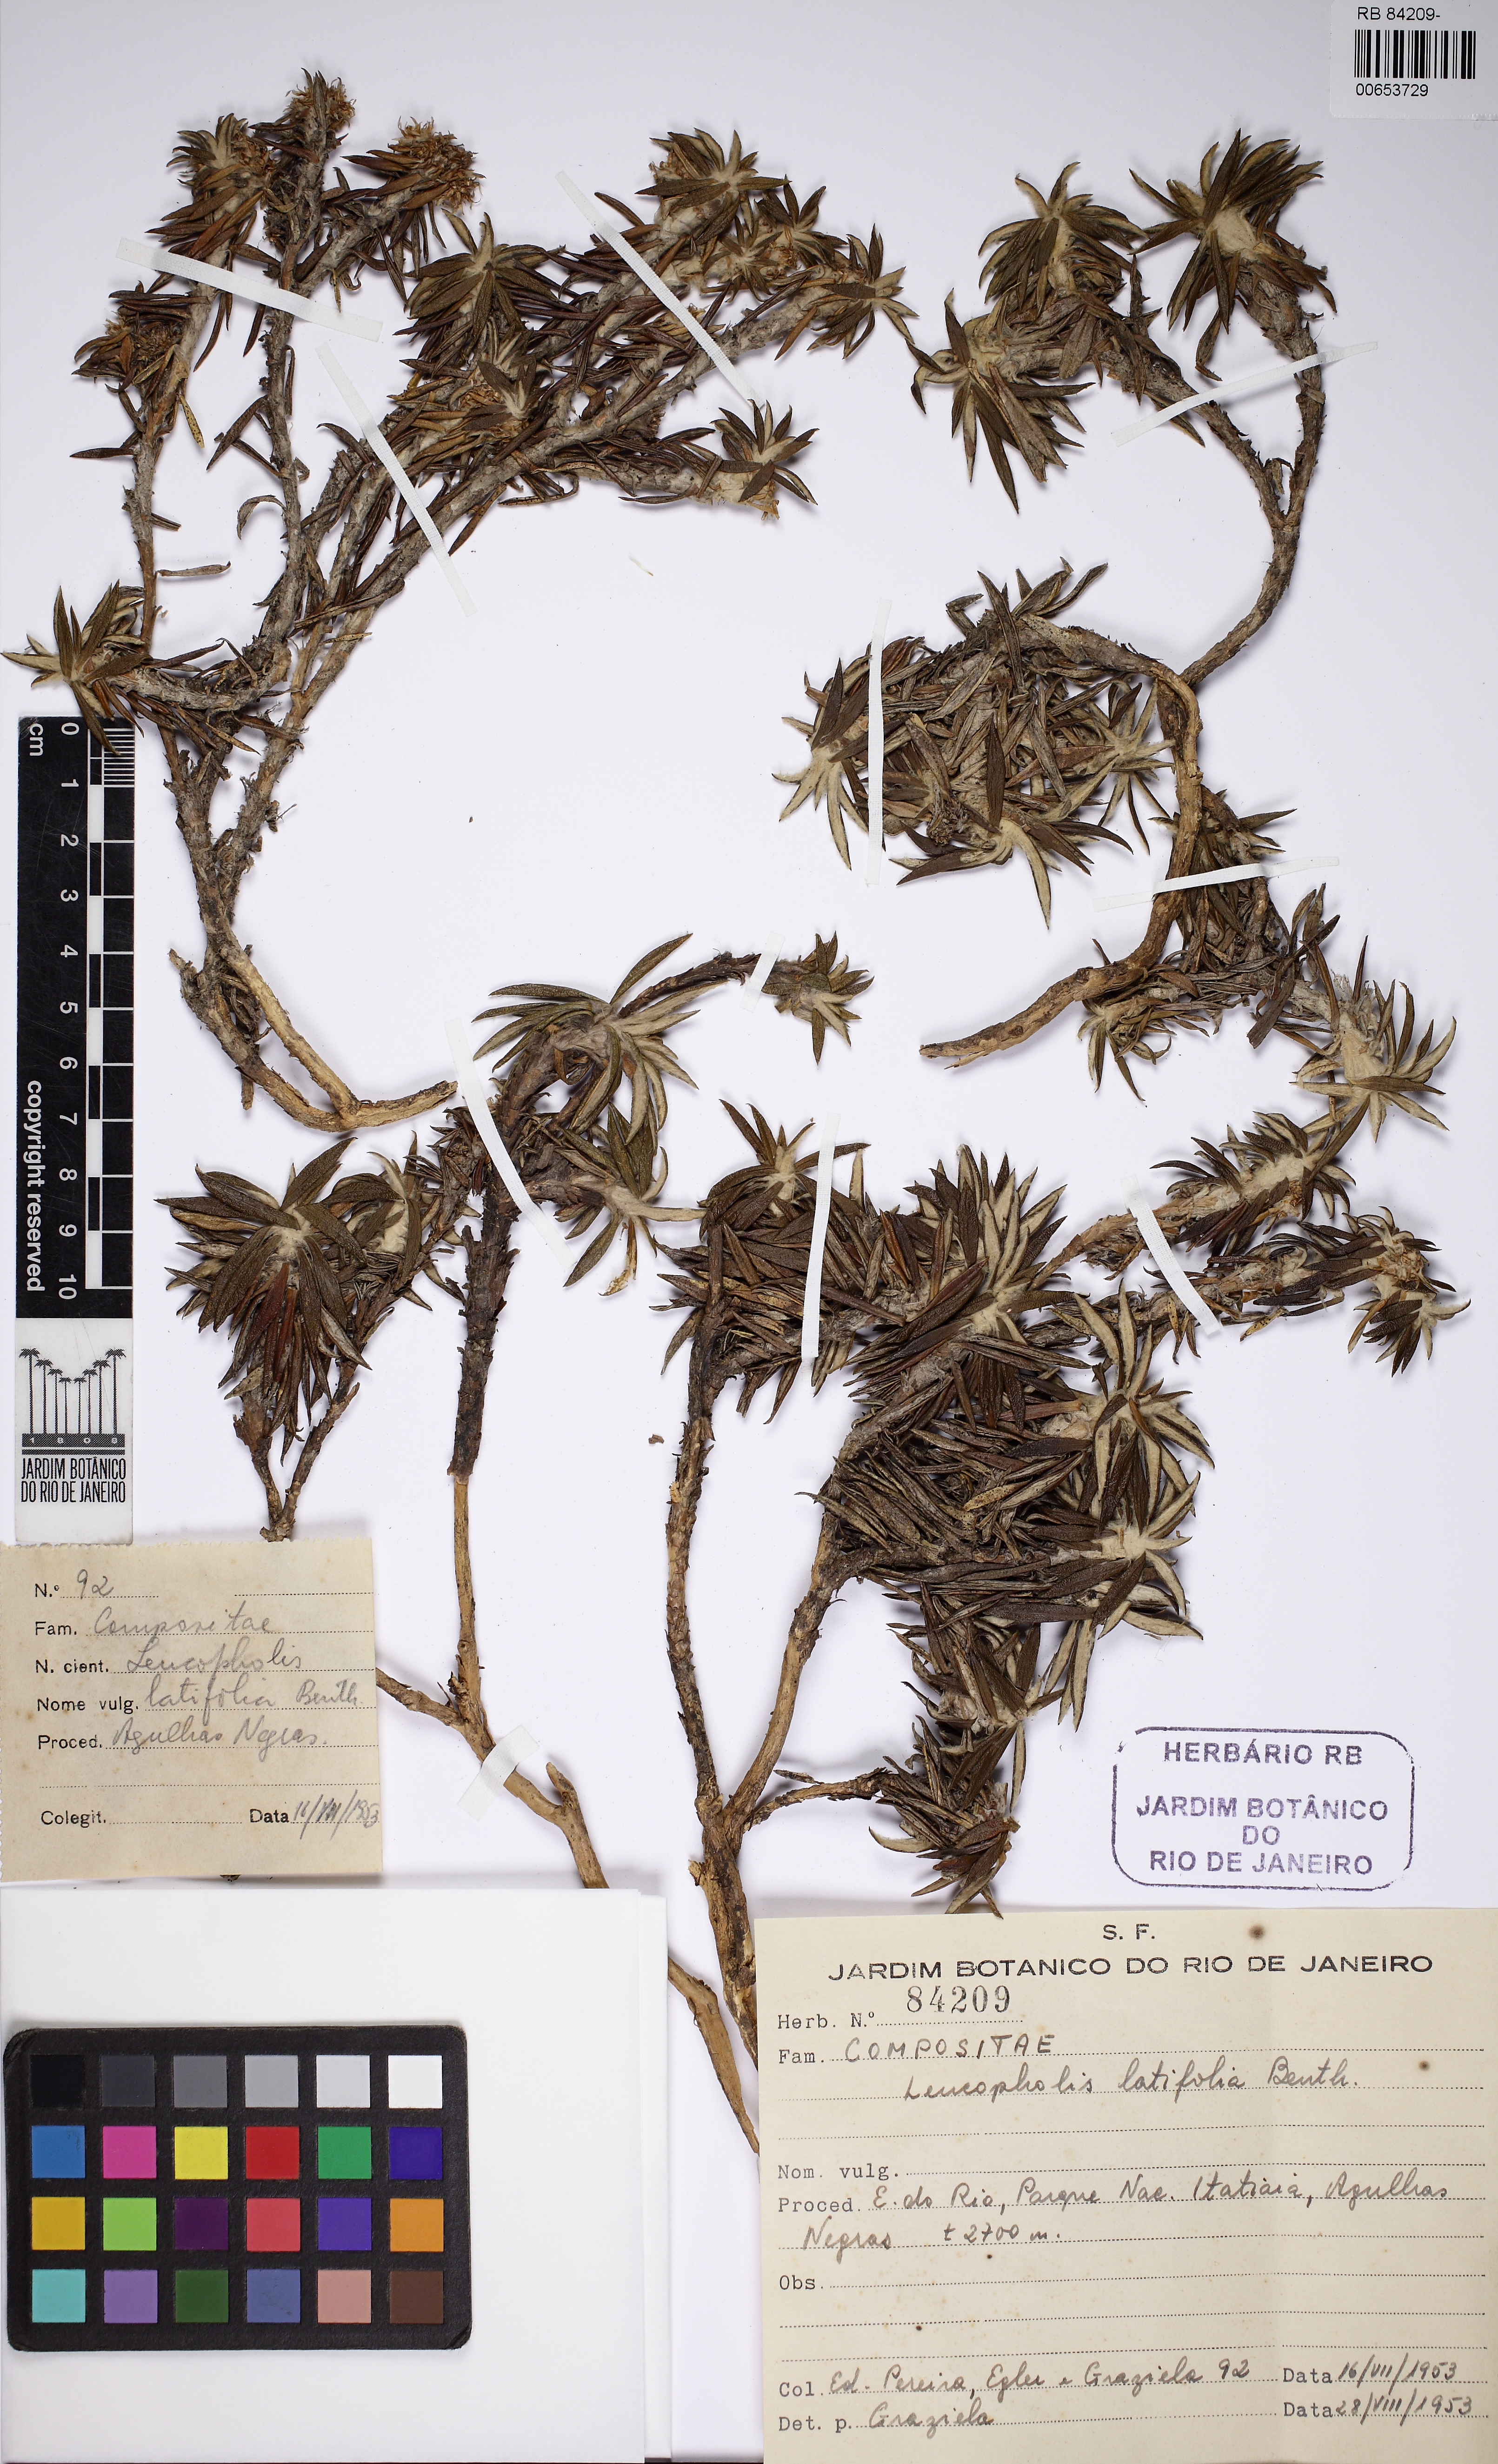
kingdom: Plantae
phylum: Tracheophyta
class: Magnoliopsida
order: Asterales
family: Asteraceae
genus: Chionolaena
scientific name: Chionolaena latifolia
